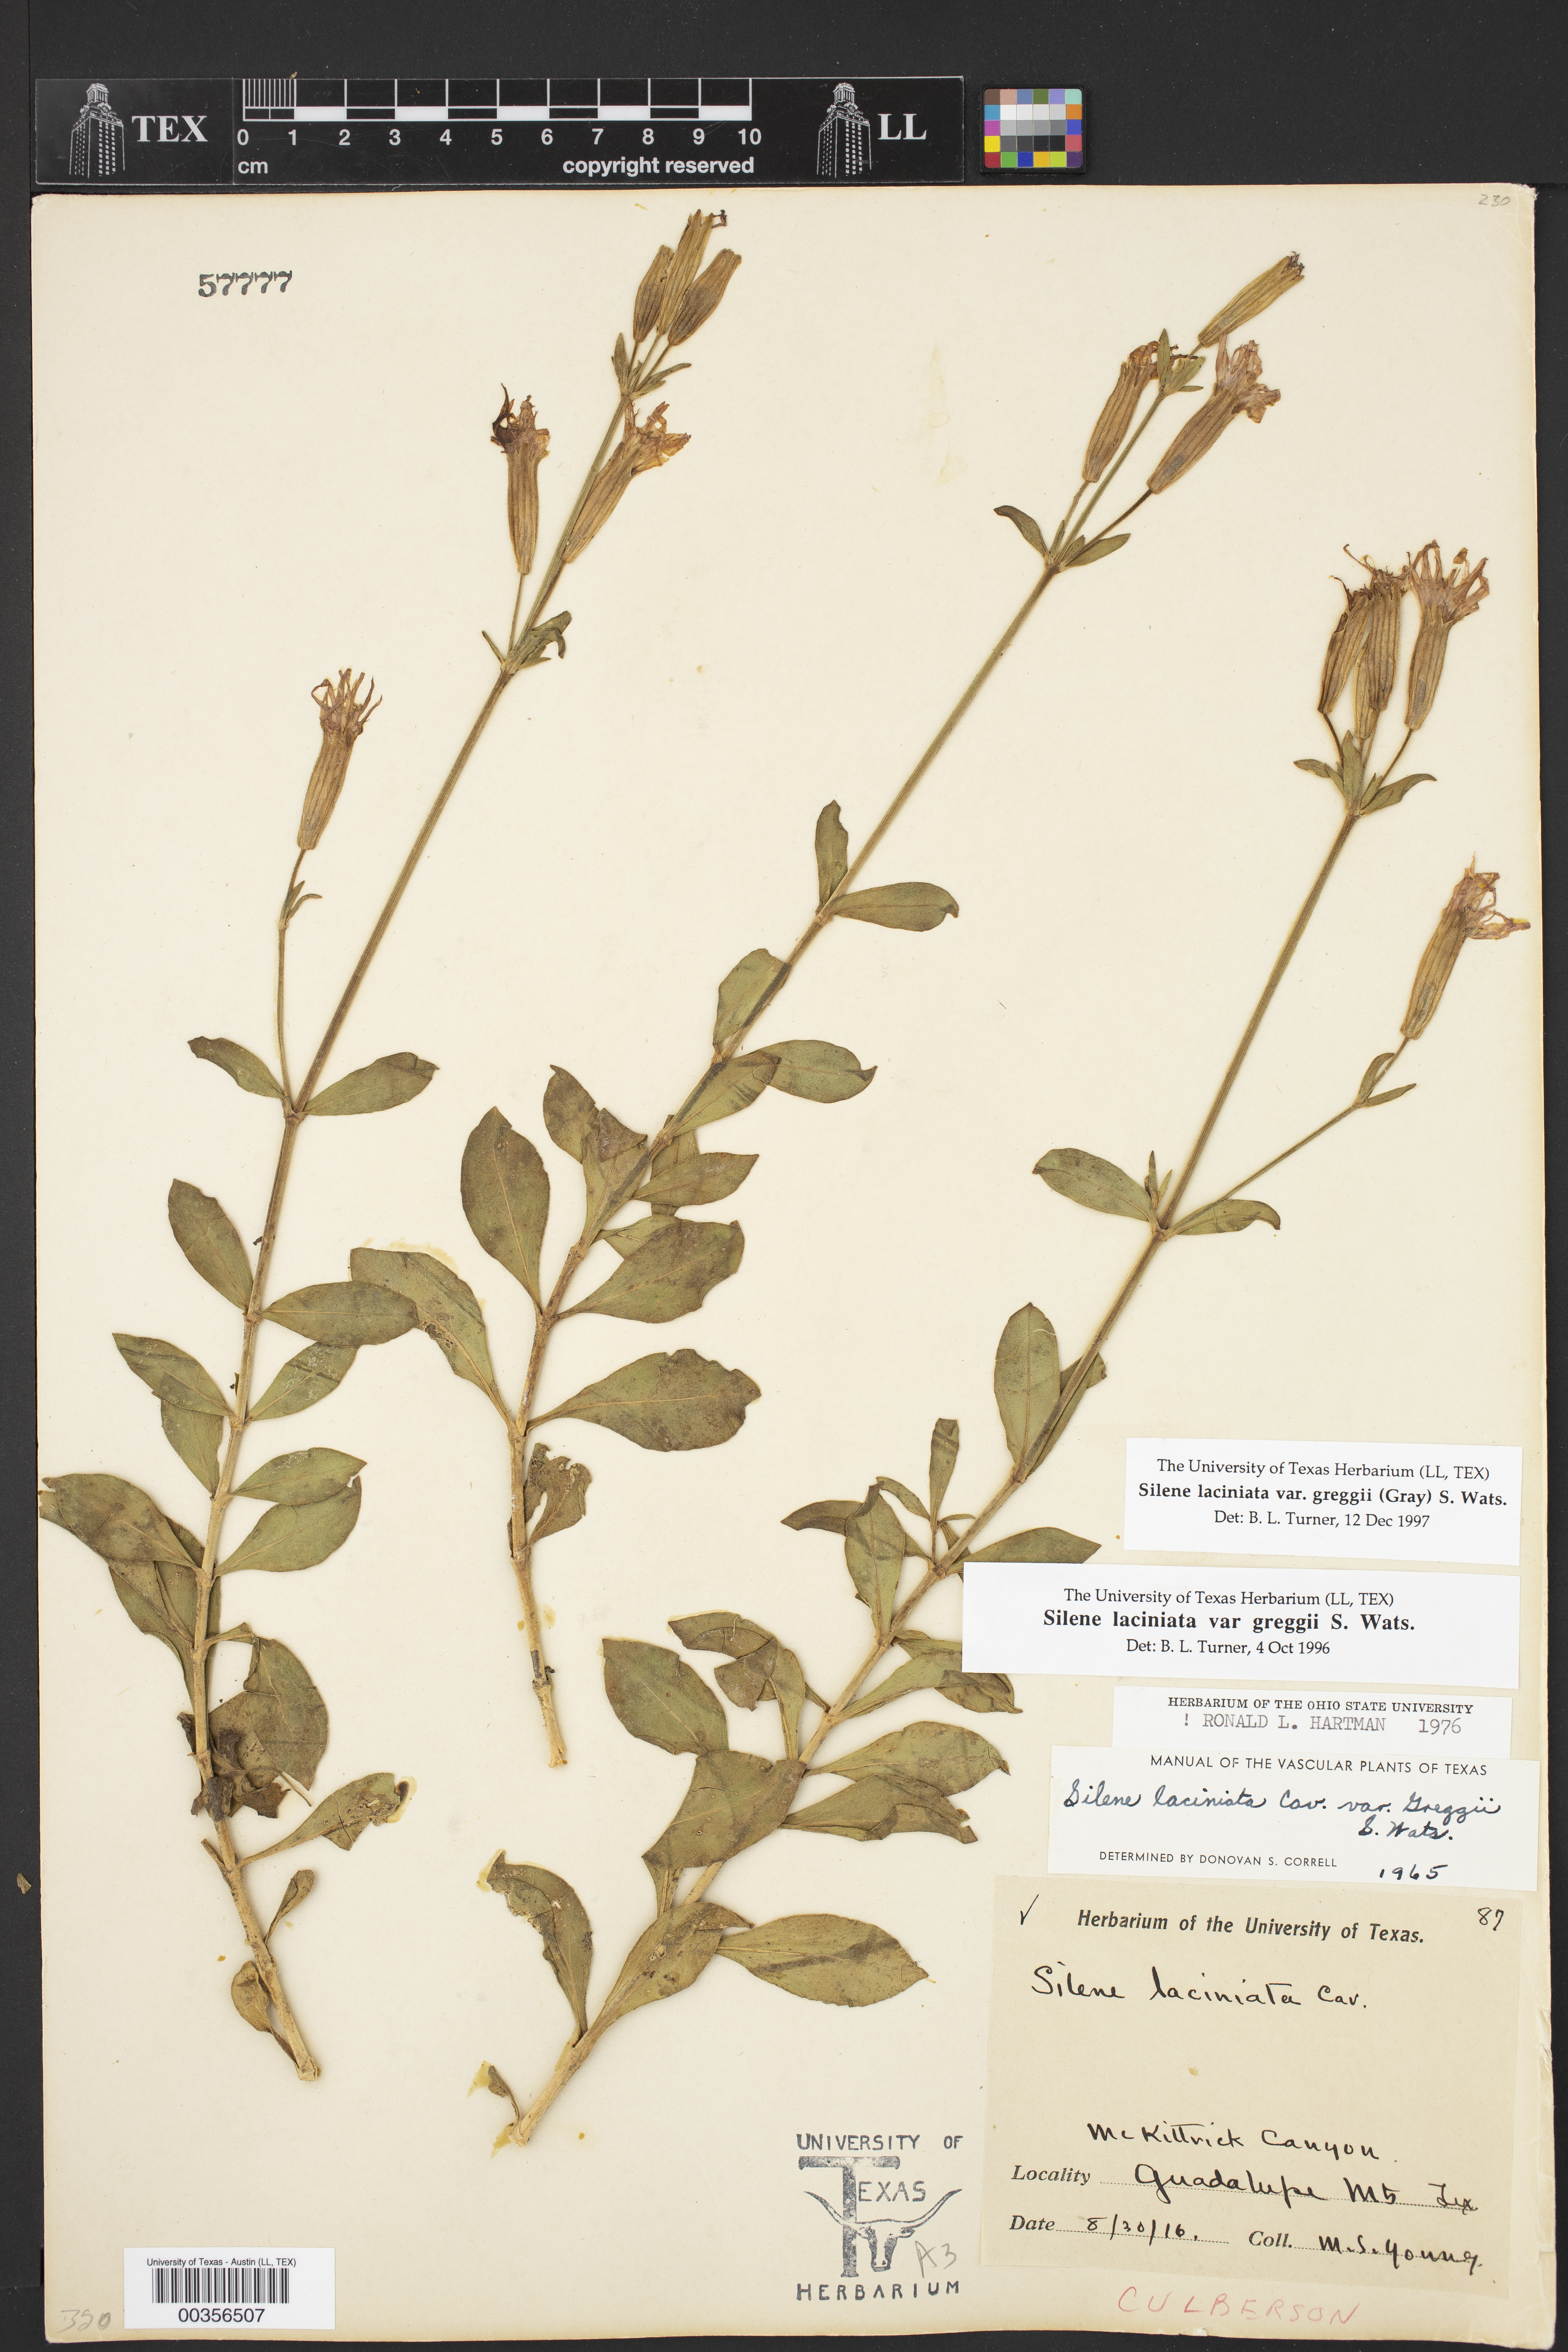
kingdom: Plantae
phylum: Tracheophyta
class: Magnoliopsida
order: Caryophyllales
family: Caryophyllaceae
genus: Silene
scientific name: Silene laciniata
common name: Indian-pink
